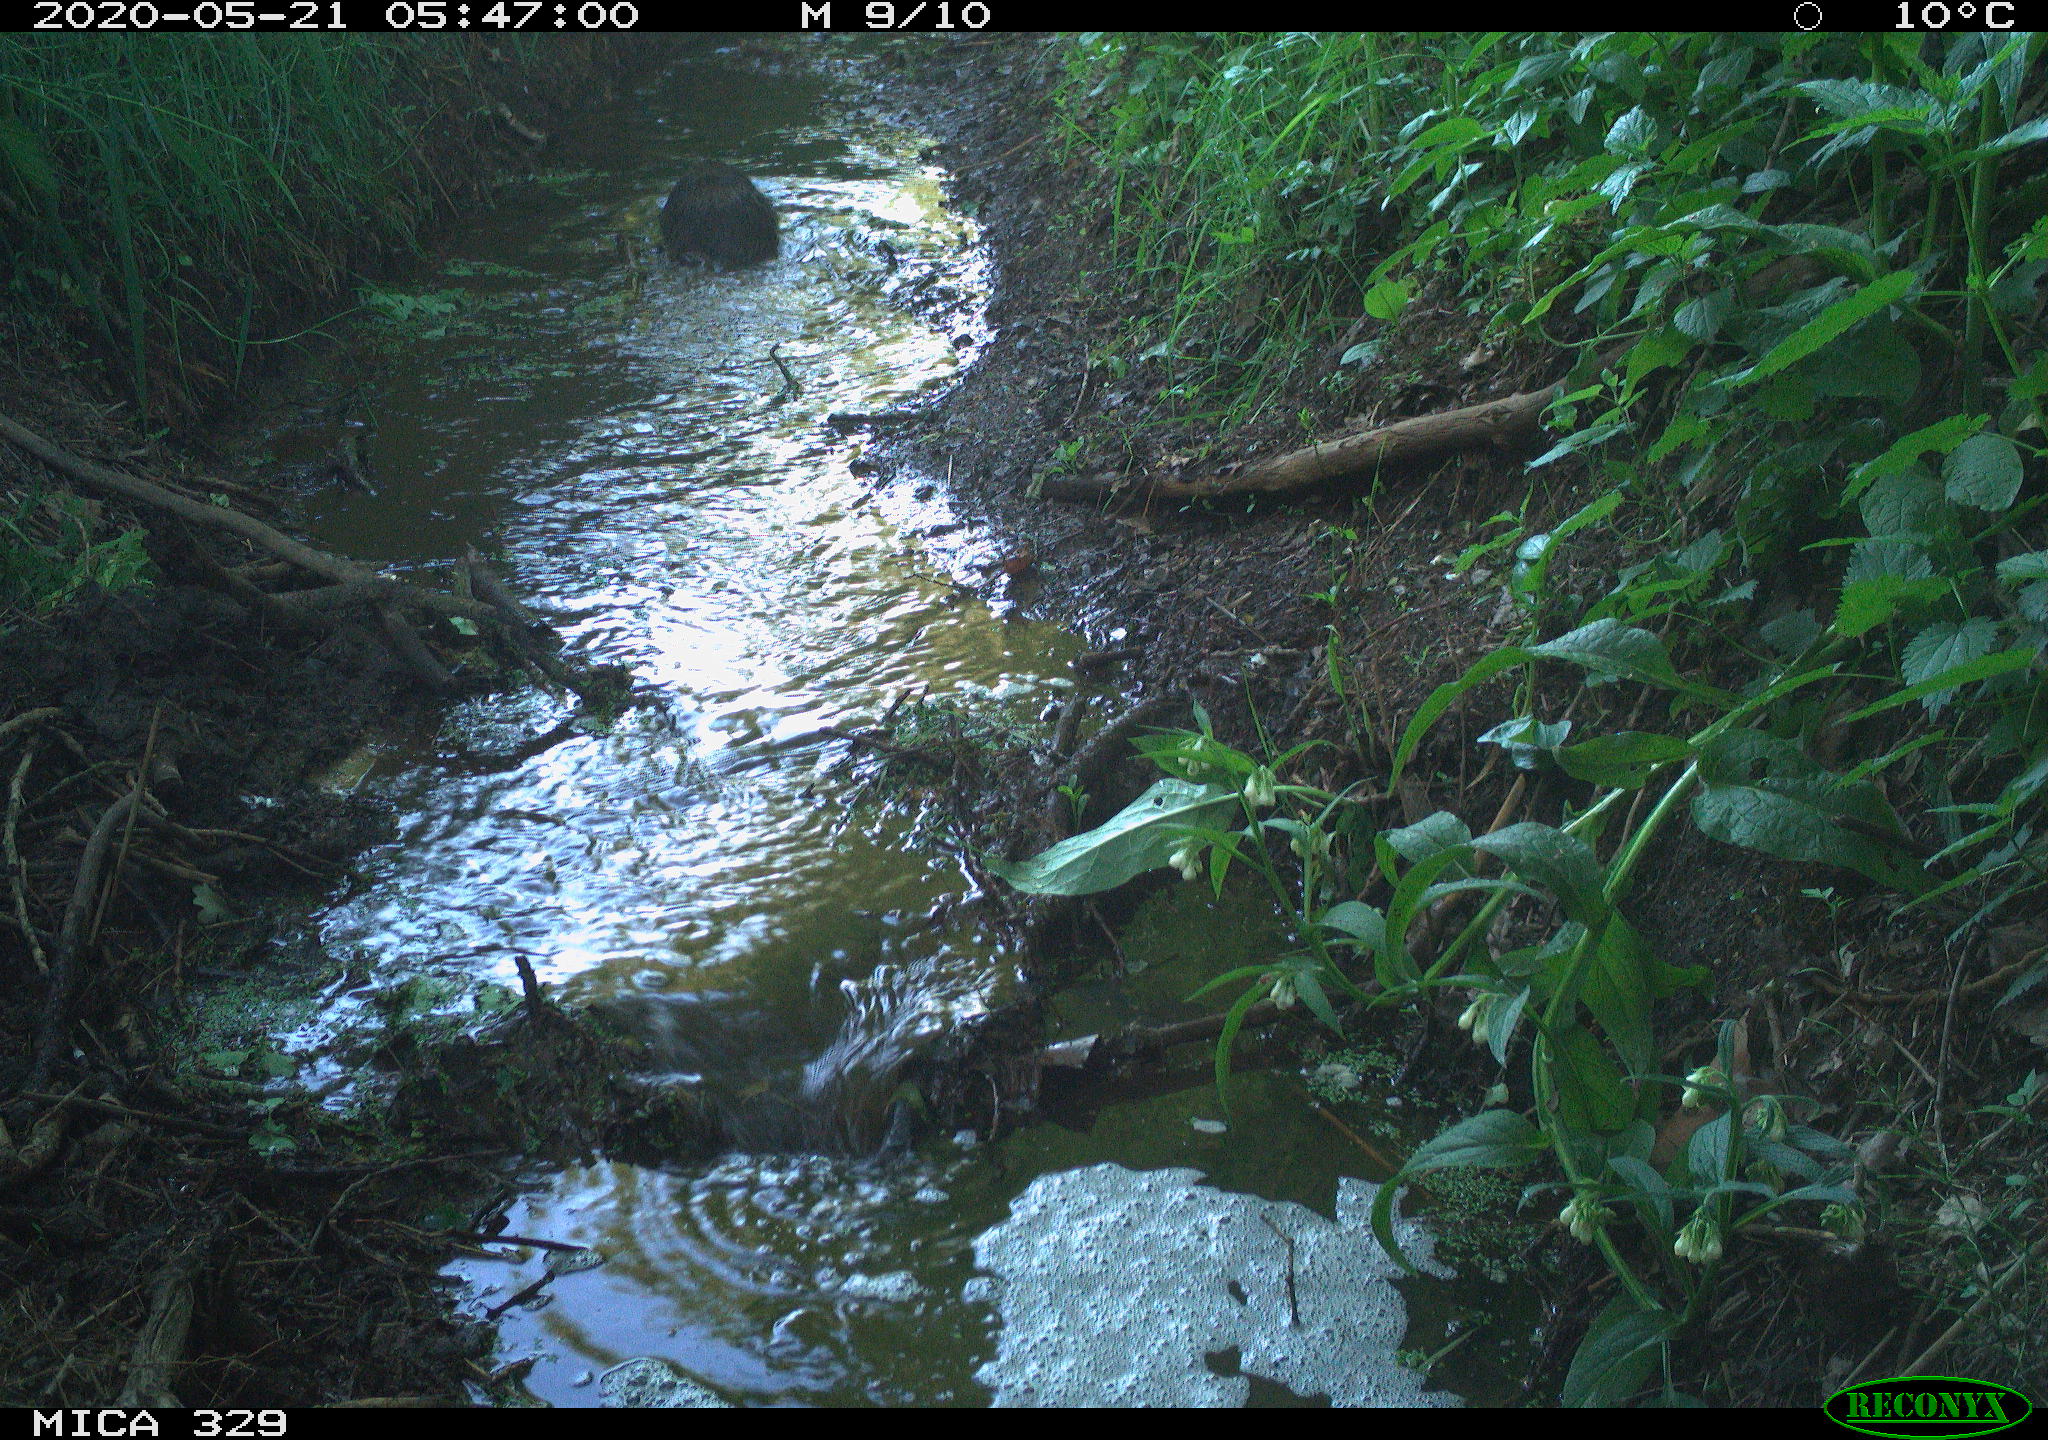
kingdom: Animalia
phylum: Chordata
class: Mammalia
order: Rodentia
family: Myocastoridae
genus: Myocastor
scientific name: Myocastor coypus
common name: Coypu
